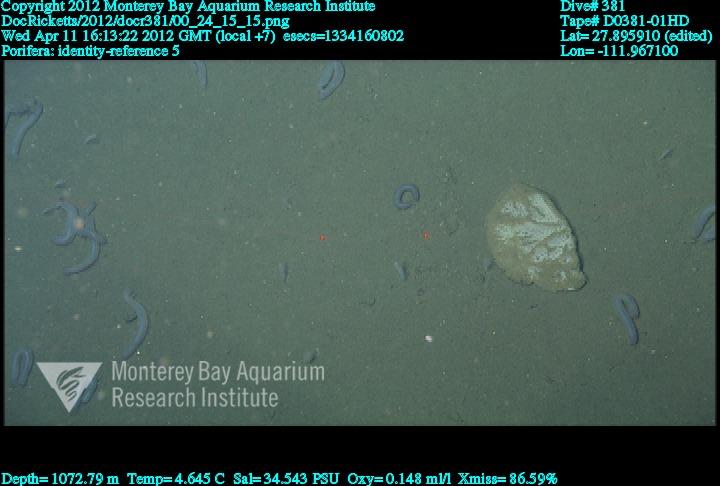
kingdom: Animalia
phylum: Porifera
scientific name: Porifera
